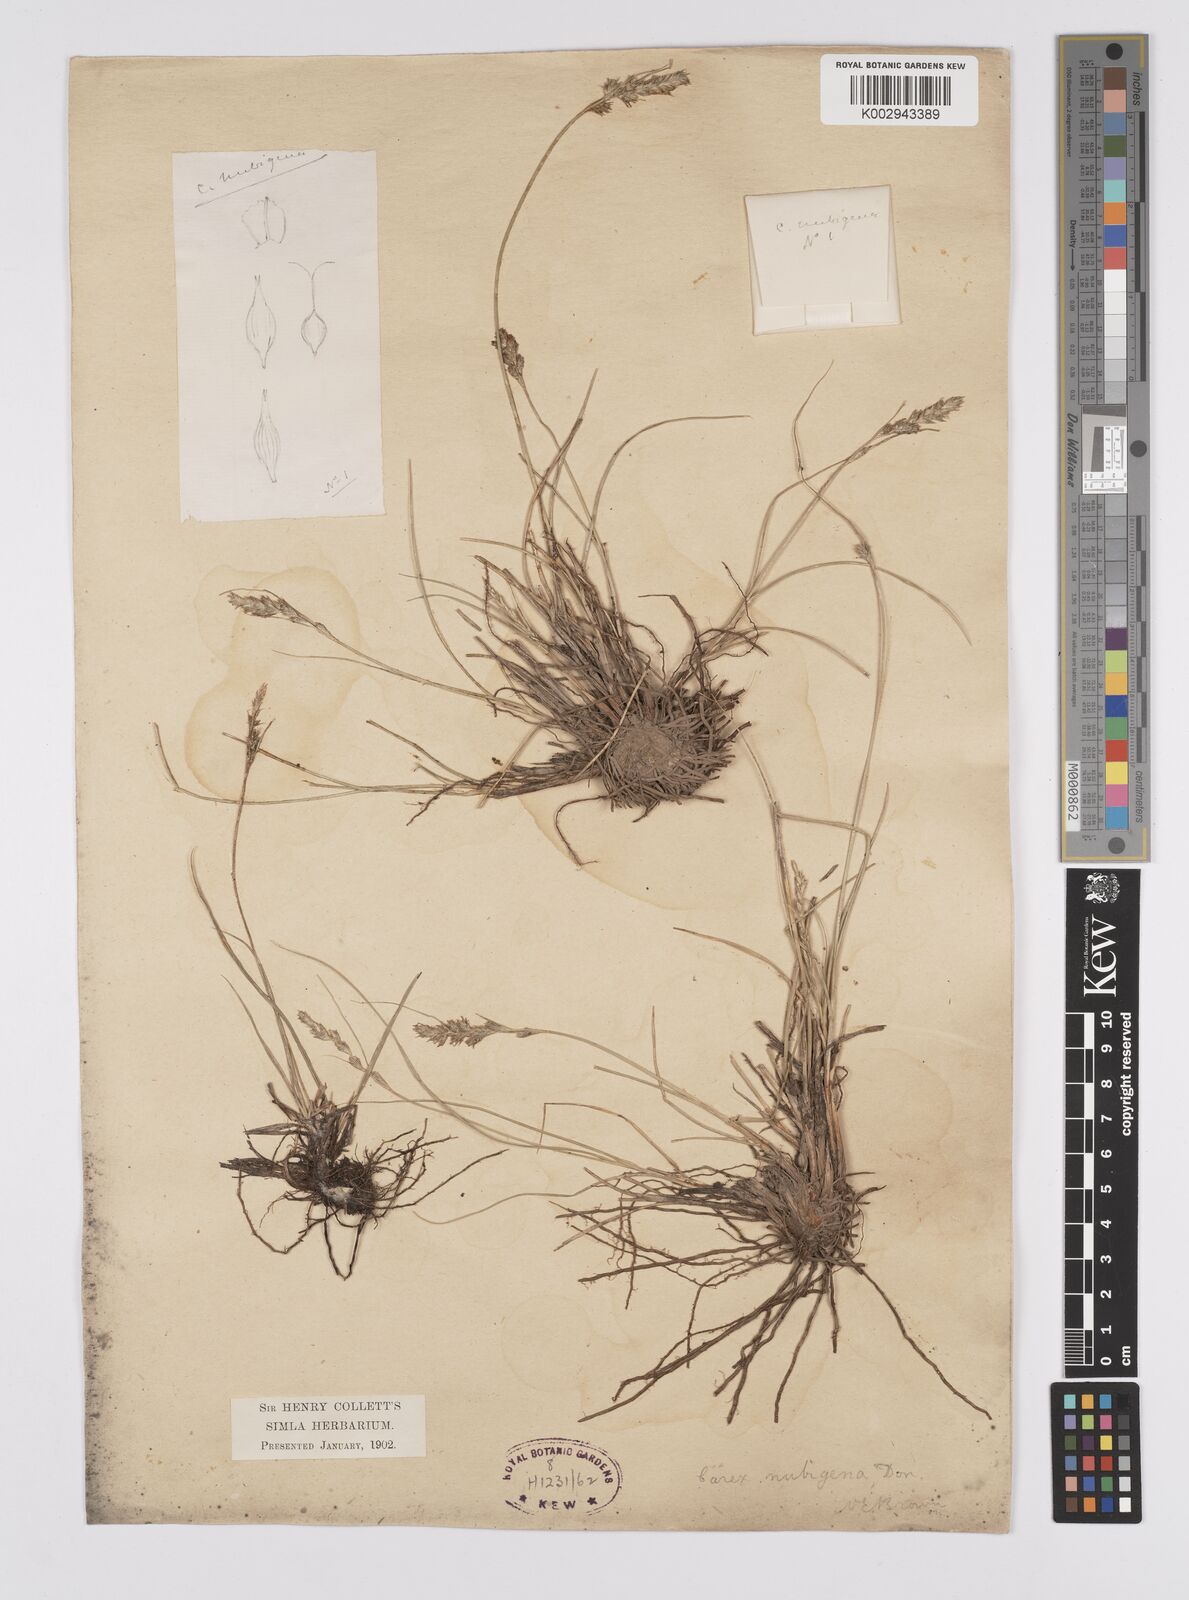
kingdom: Plantae
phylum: Tracheophyta
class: Liliopsida
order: Poales
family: Cyperaceae
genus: Carex
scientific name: Carex nubigena
